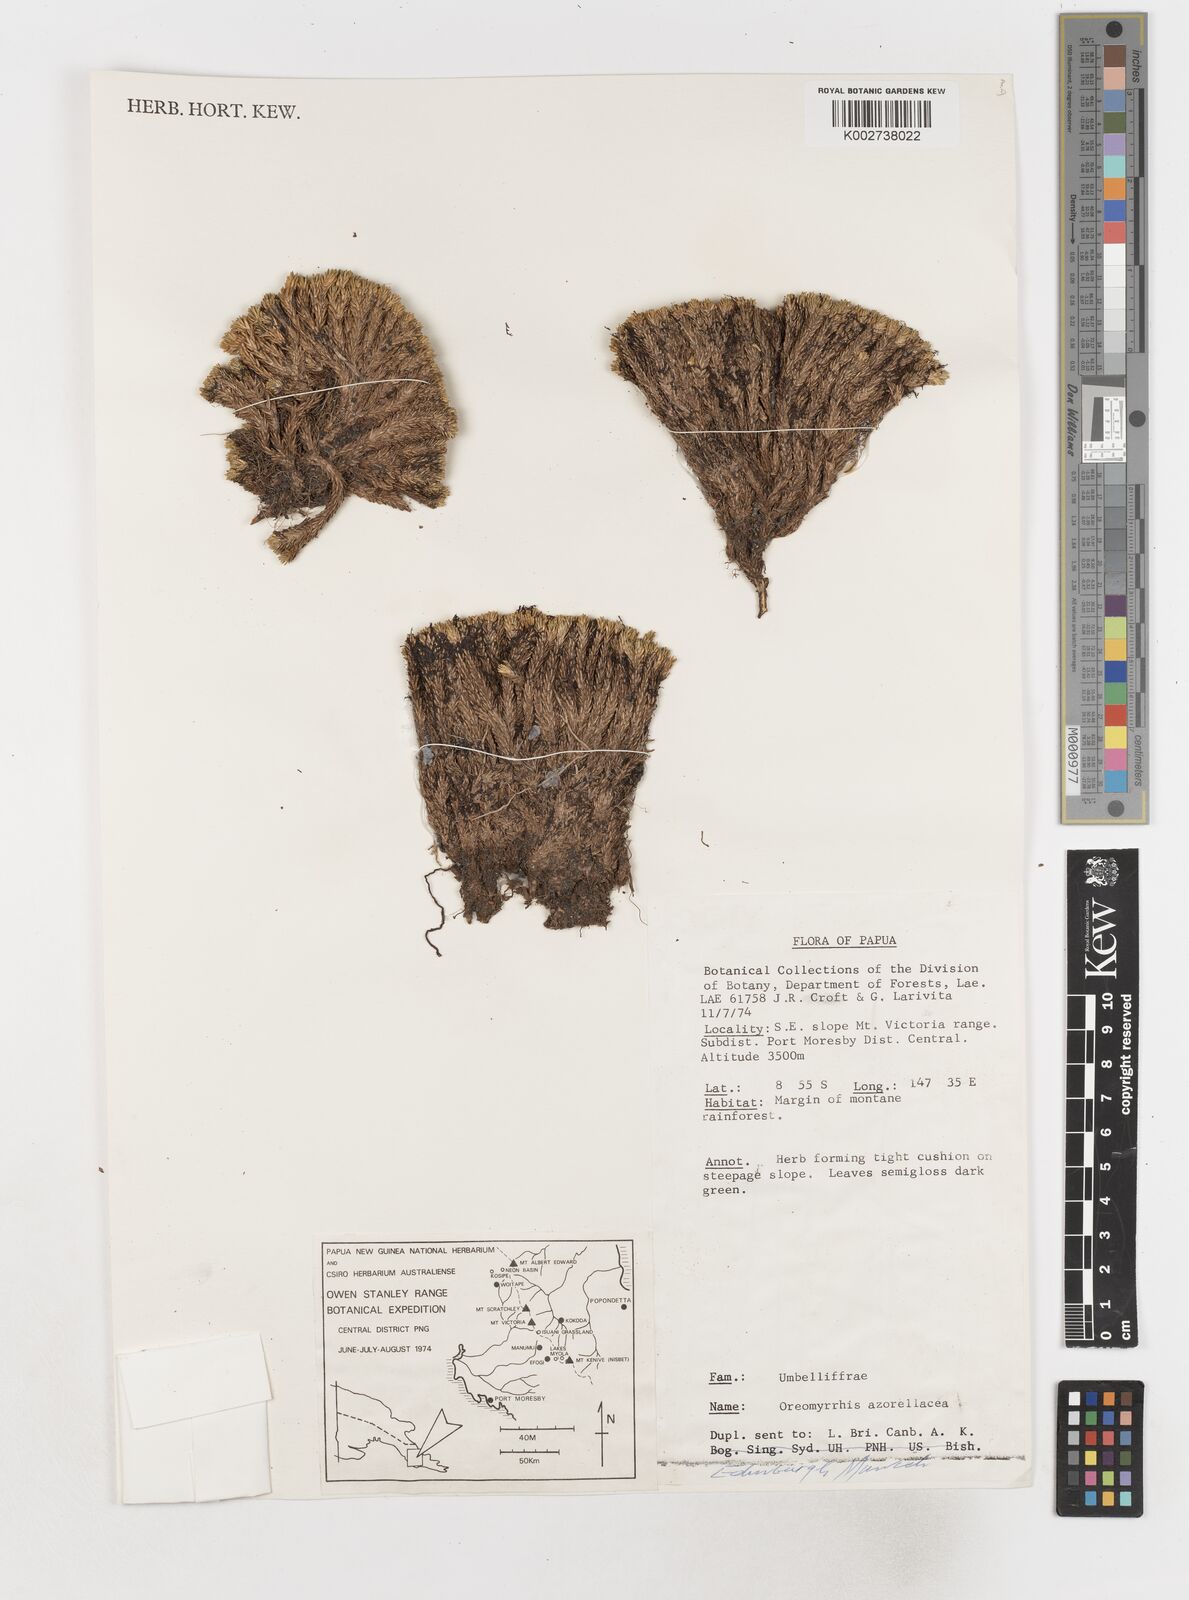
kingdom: Plantae
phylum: Tracheophyta
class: Magnoliopsida
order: Apiales
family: Apiaceae
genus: Chaerophyllum
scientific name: Chaerophyllum azorellaceum
